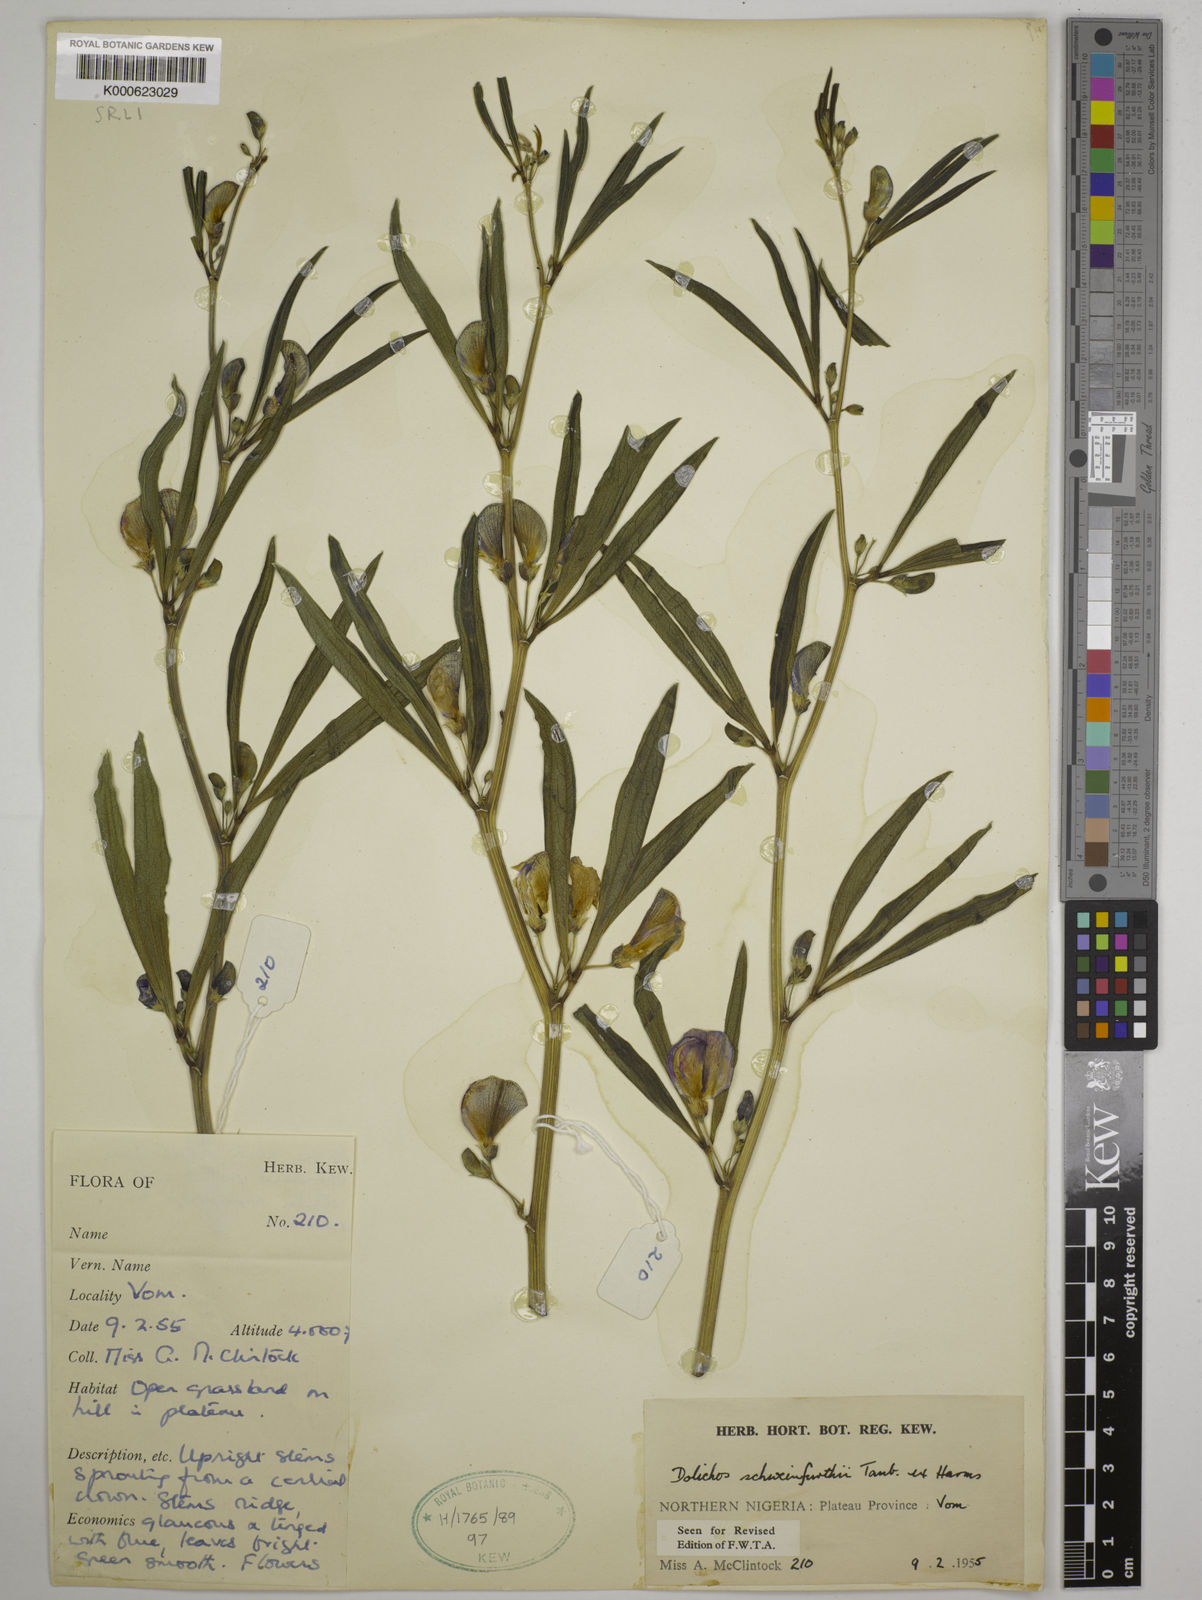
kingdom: Plantae
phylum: Tracheophyta
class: Magnoliopsida
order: Fabales
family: Fabaceae
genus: Dolichos
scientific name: Dolichos
